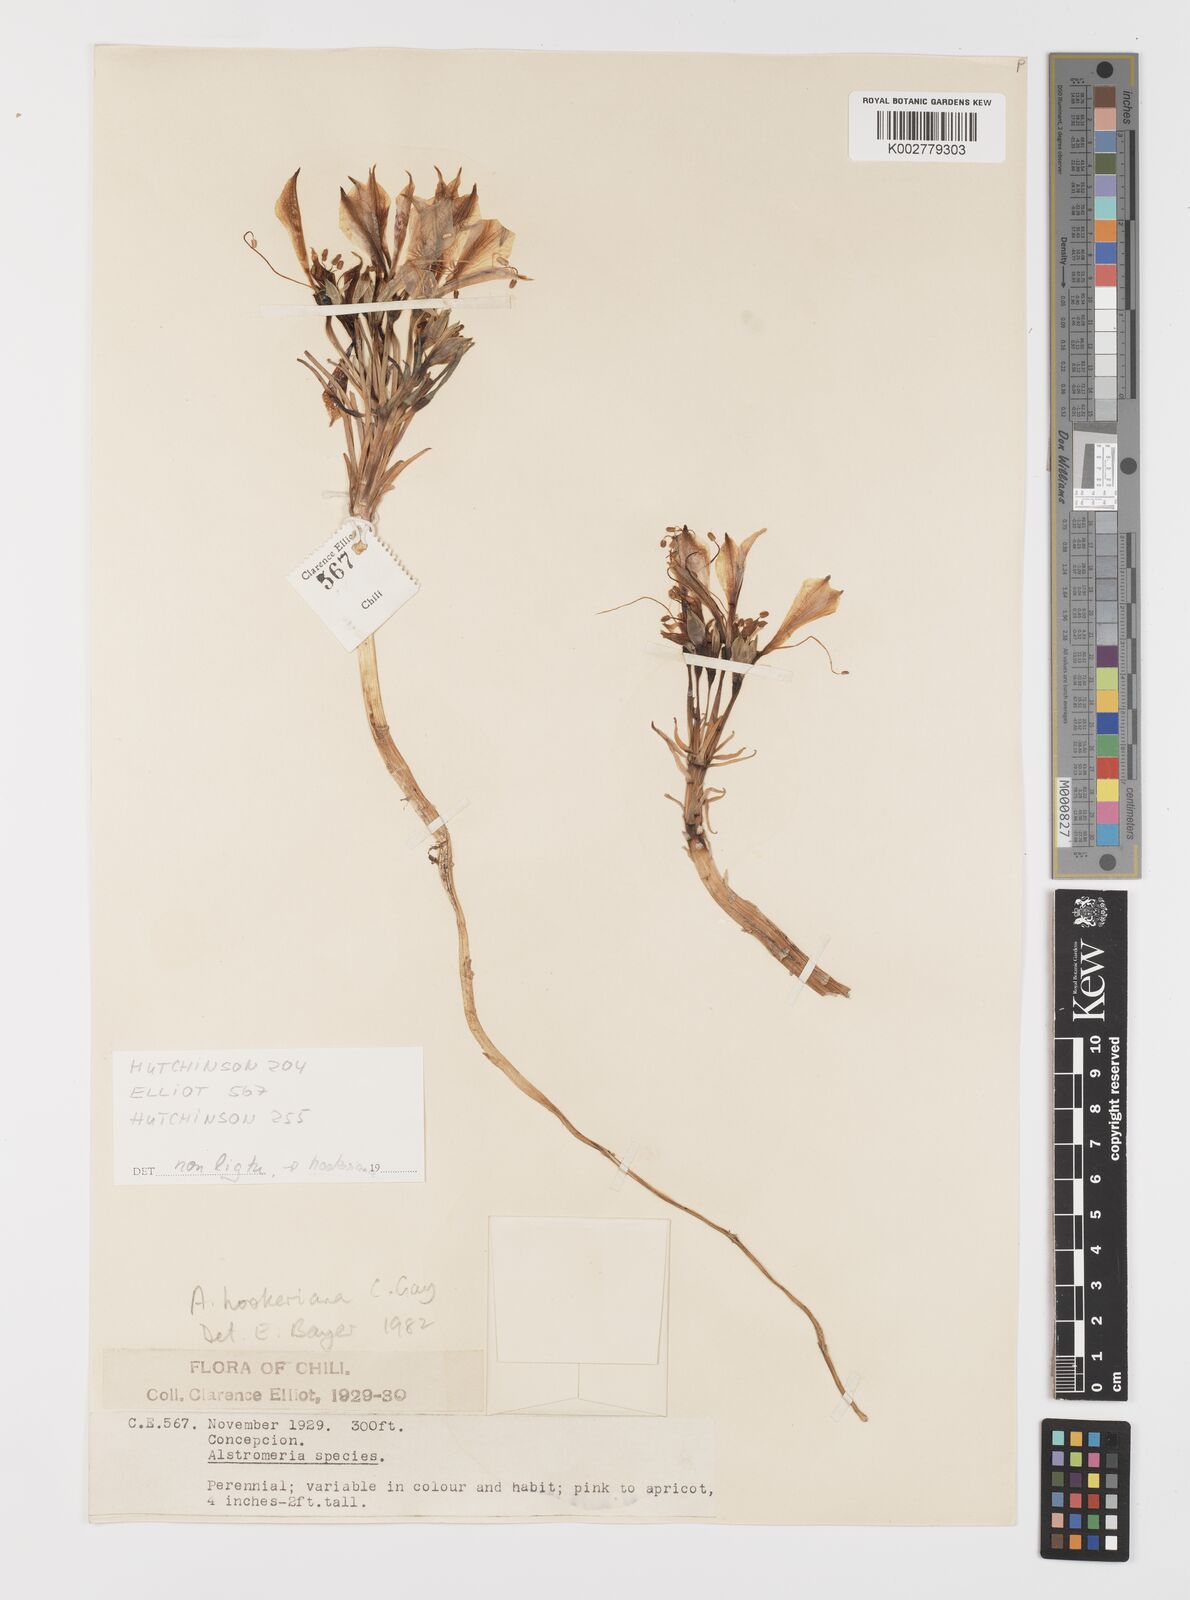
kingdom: Plantae
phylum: Tracheophyta
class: Liliopsida
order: Liliales
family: Alstroemeriaceae
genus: Alstroemeria
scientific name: Alstroemeria ligtu
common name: St. martin's-flower
